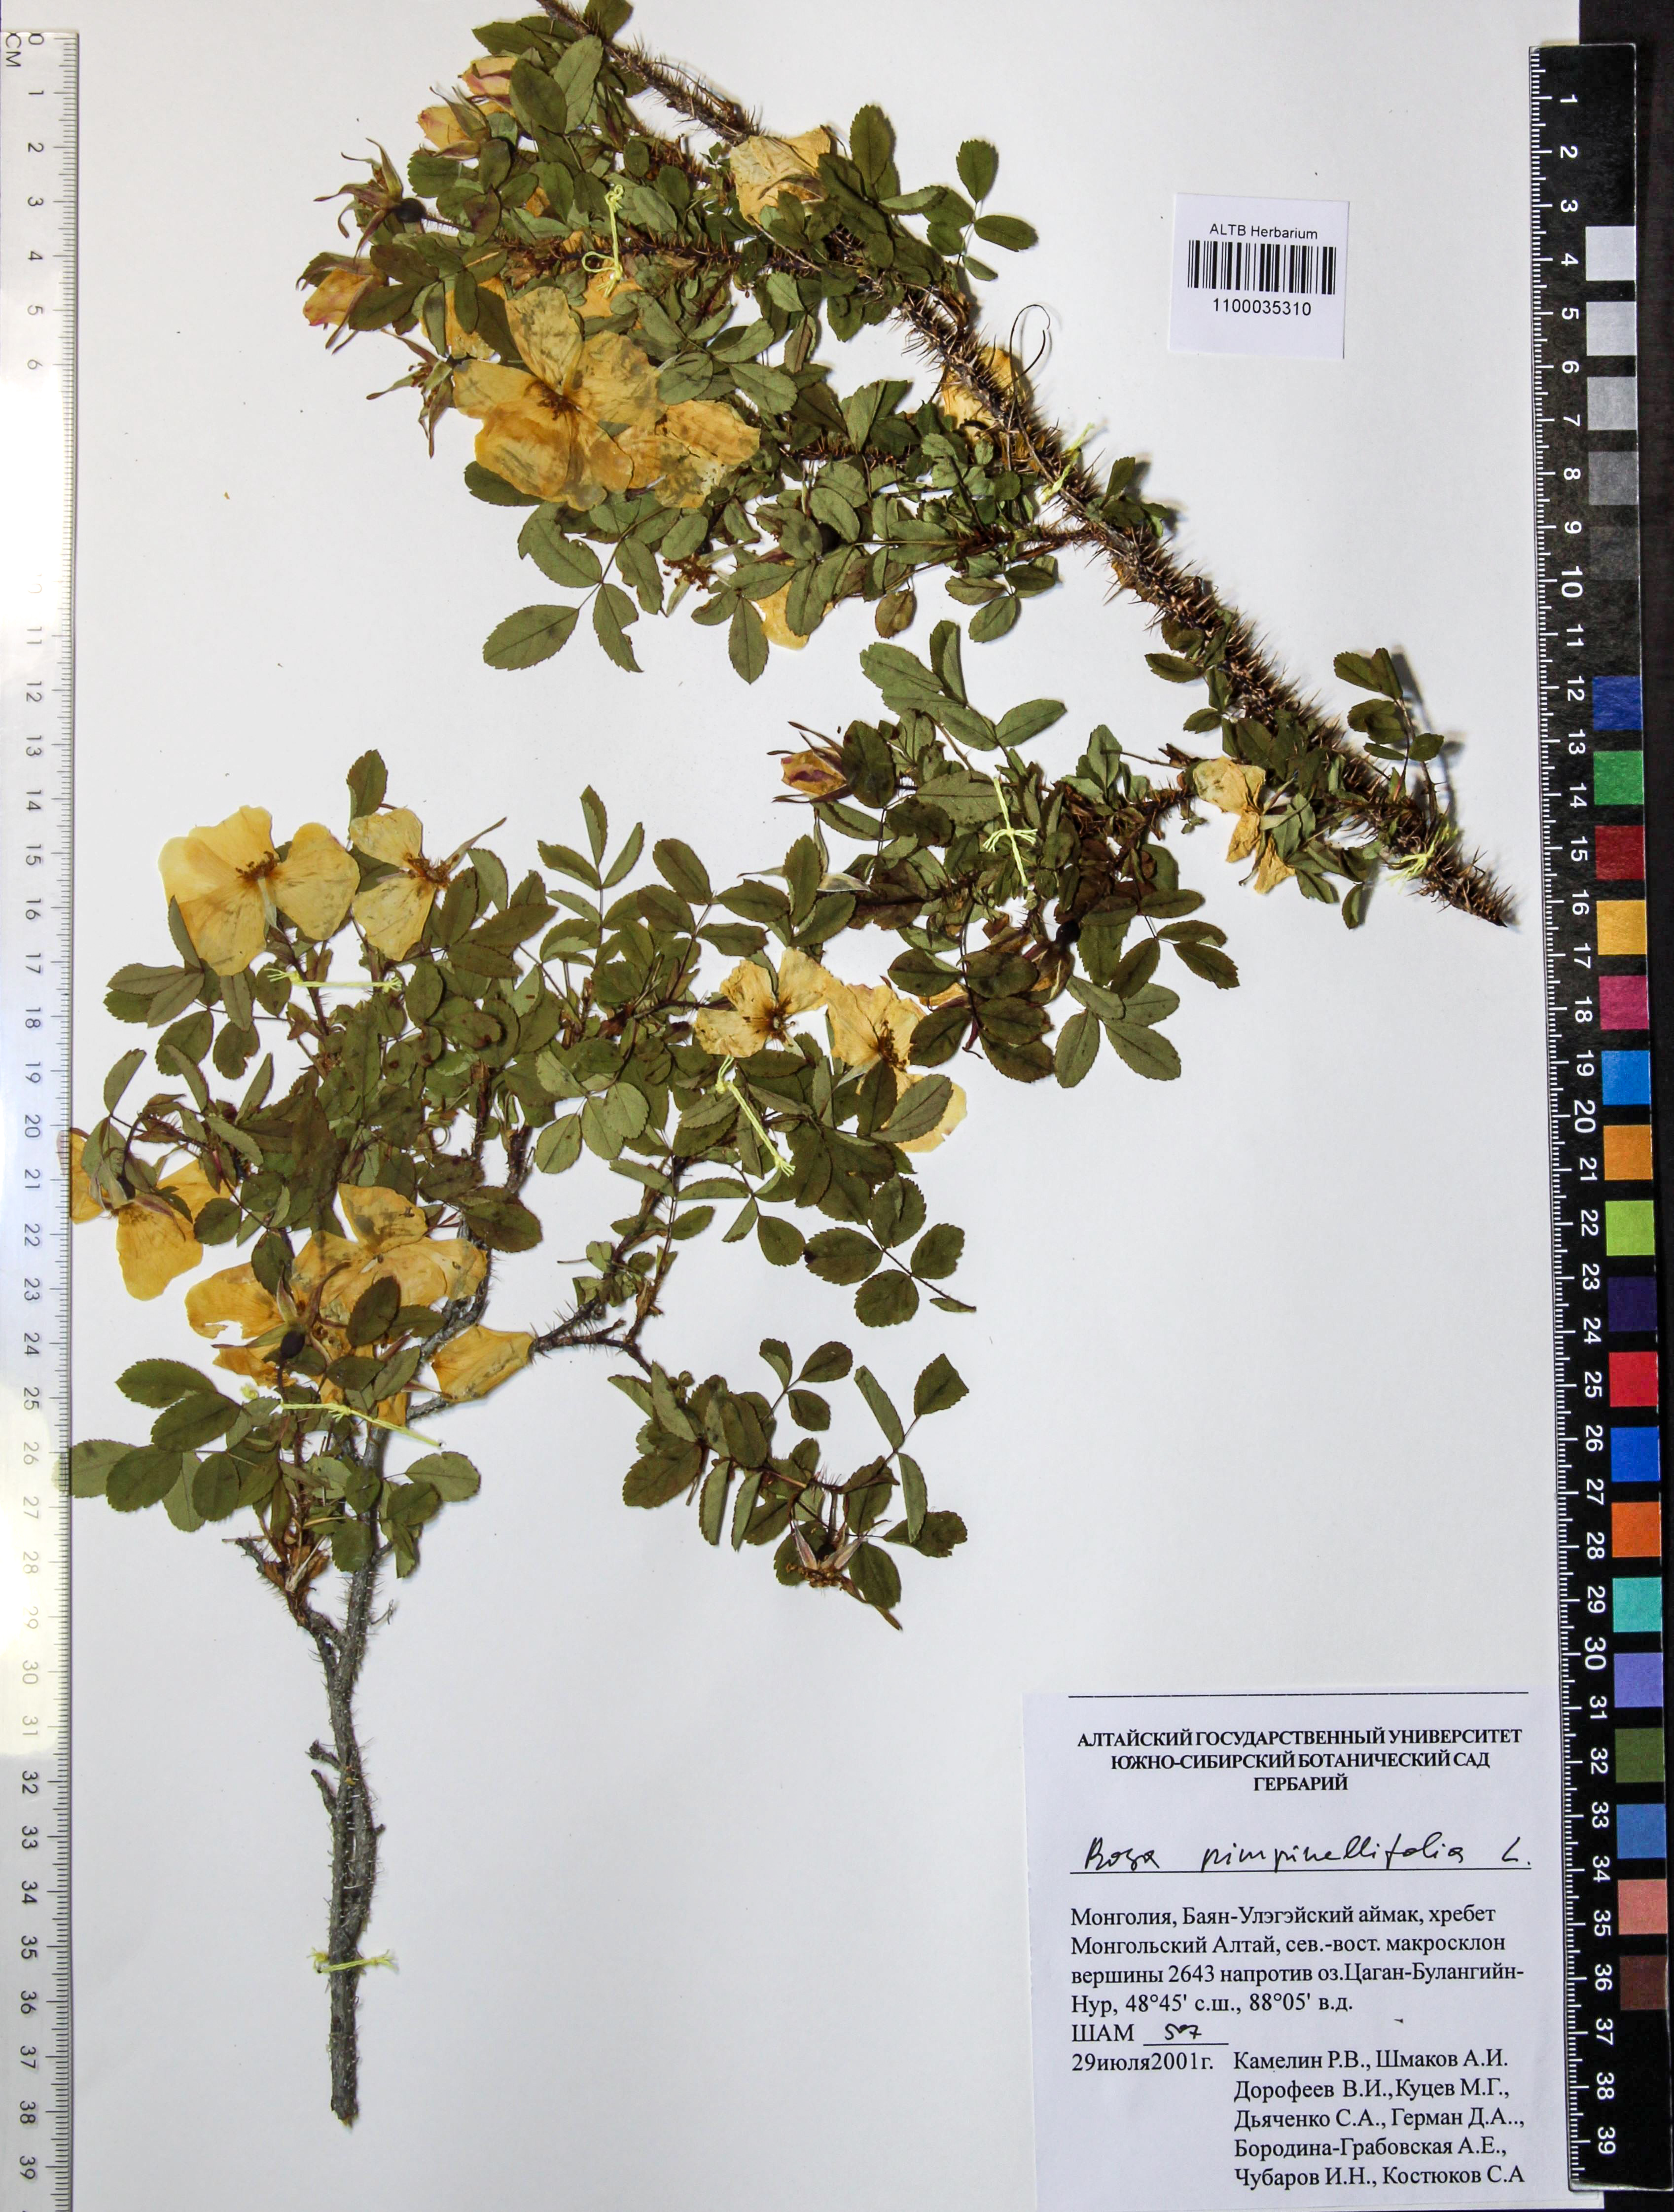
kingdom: Plantae
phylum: Tracheophyta
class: Magnoliopsida
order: Rosales
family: Rosaceae
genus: Rosa
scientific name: Rosa spinosissima
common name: Burnet rose
